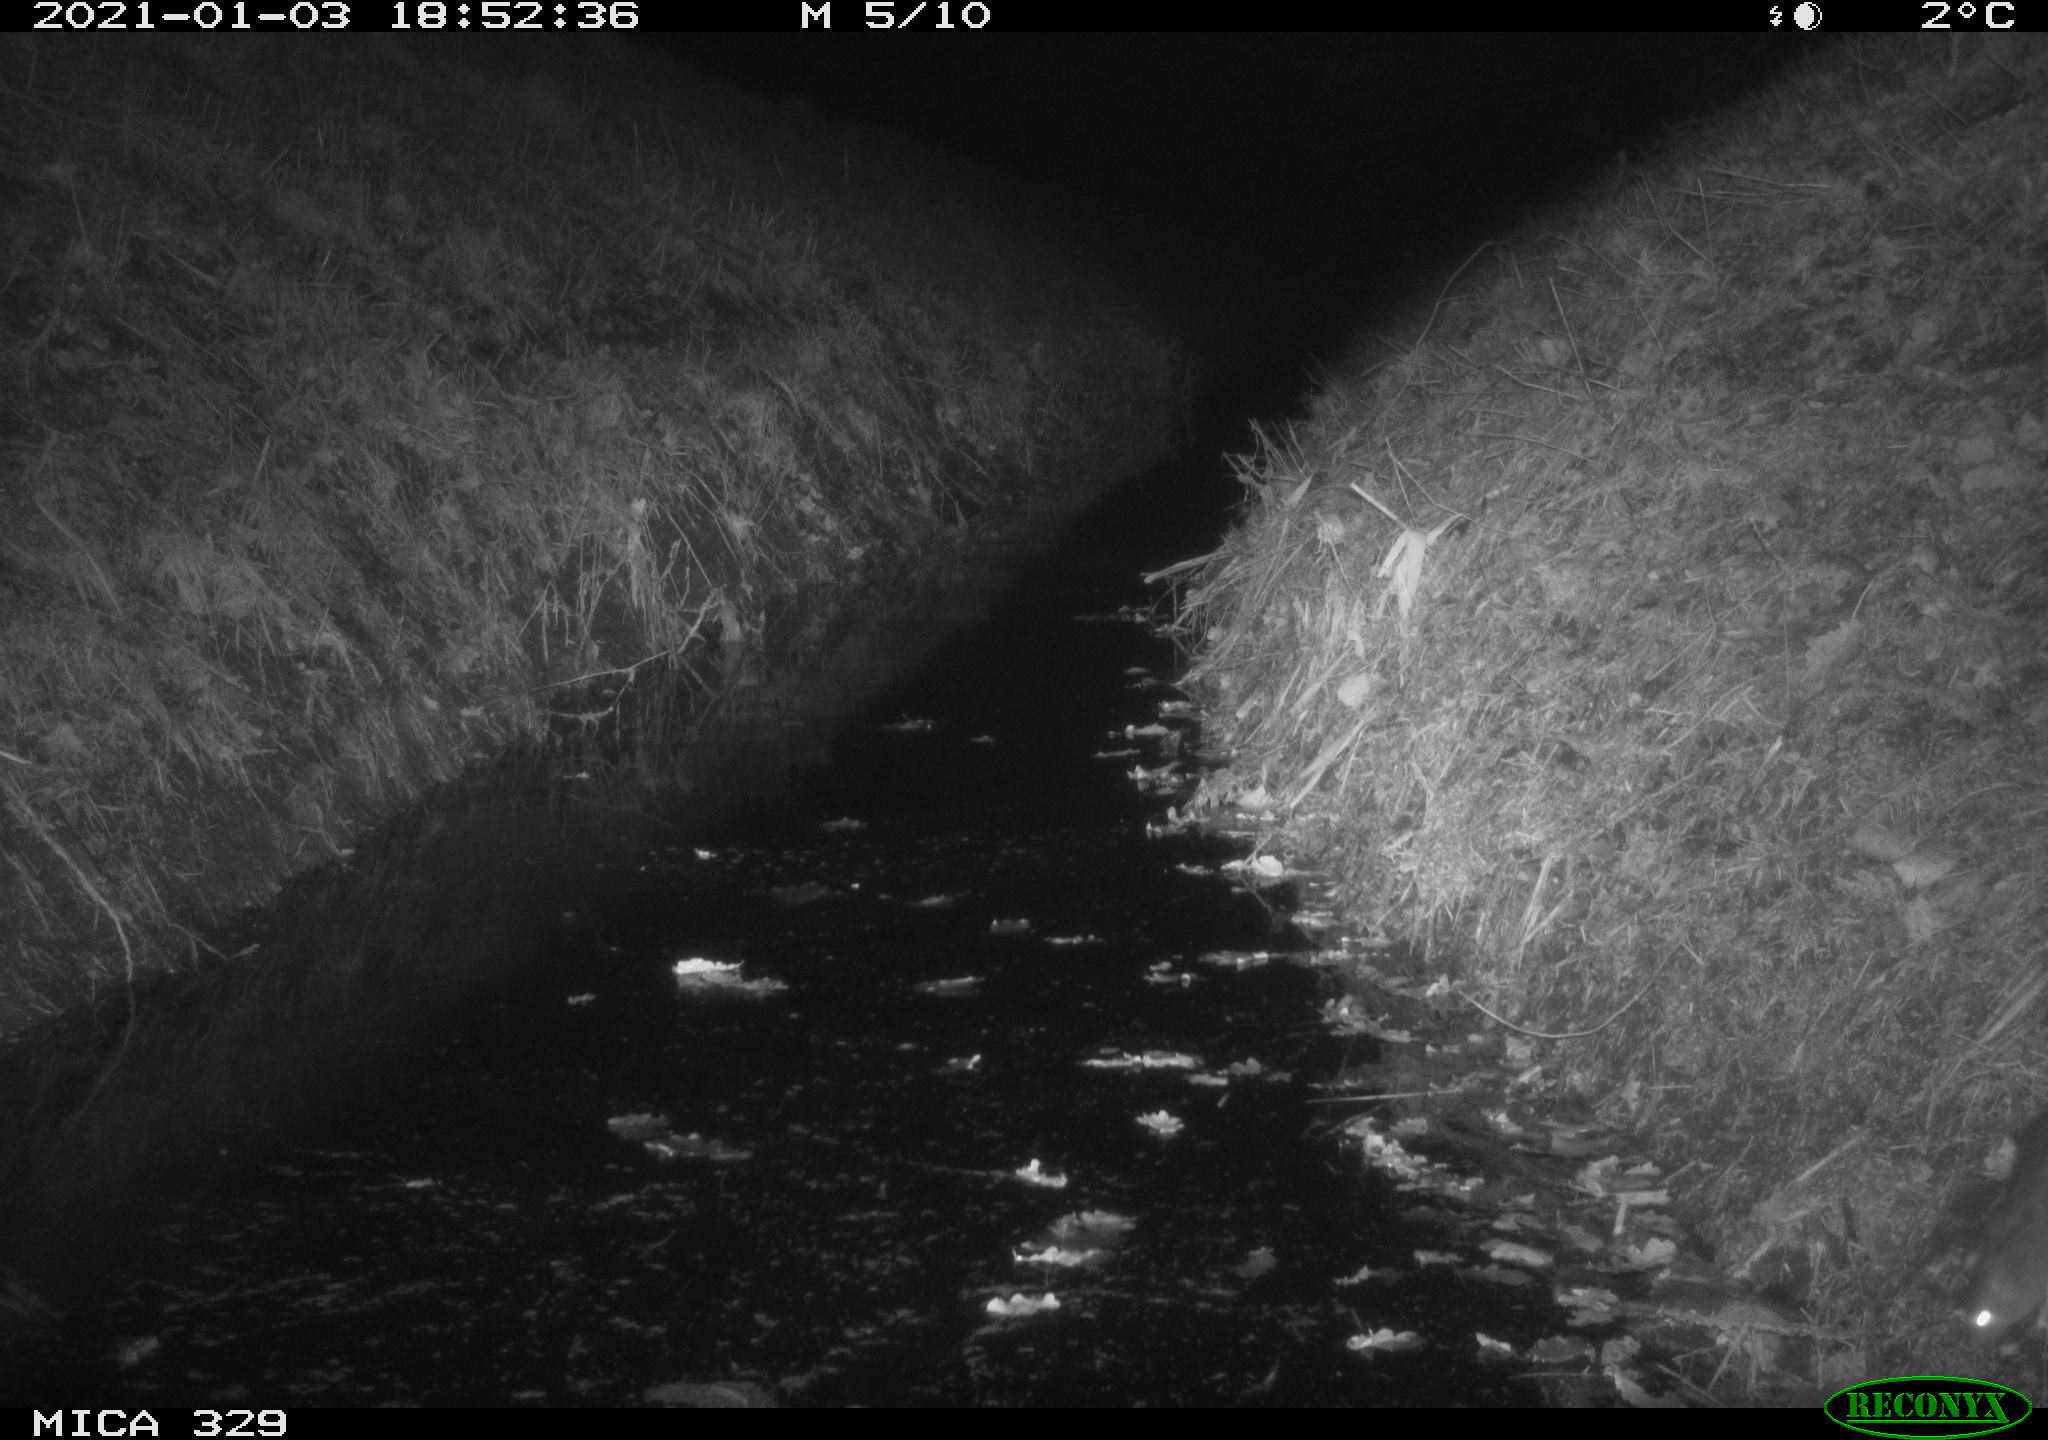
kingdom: Animalia
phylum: Chordata
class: Mammalia
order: Rodentia
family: Muridae
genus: Rattus
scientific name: Rattus norvegicus
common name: Brown rat
